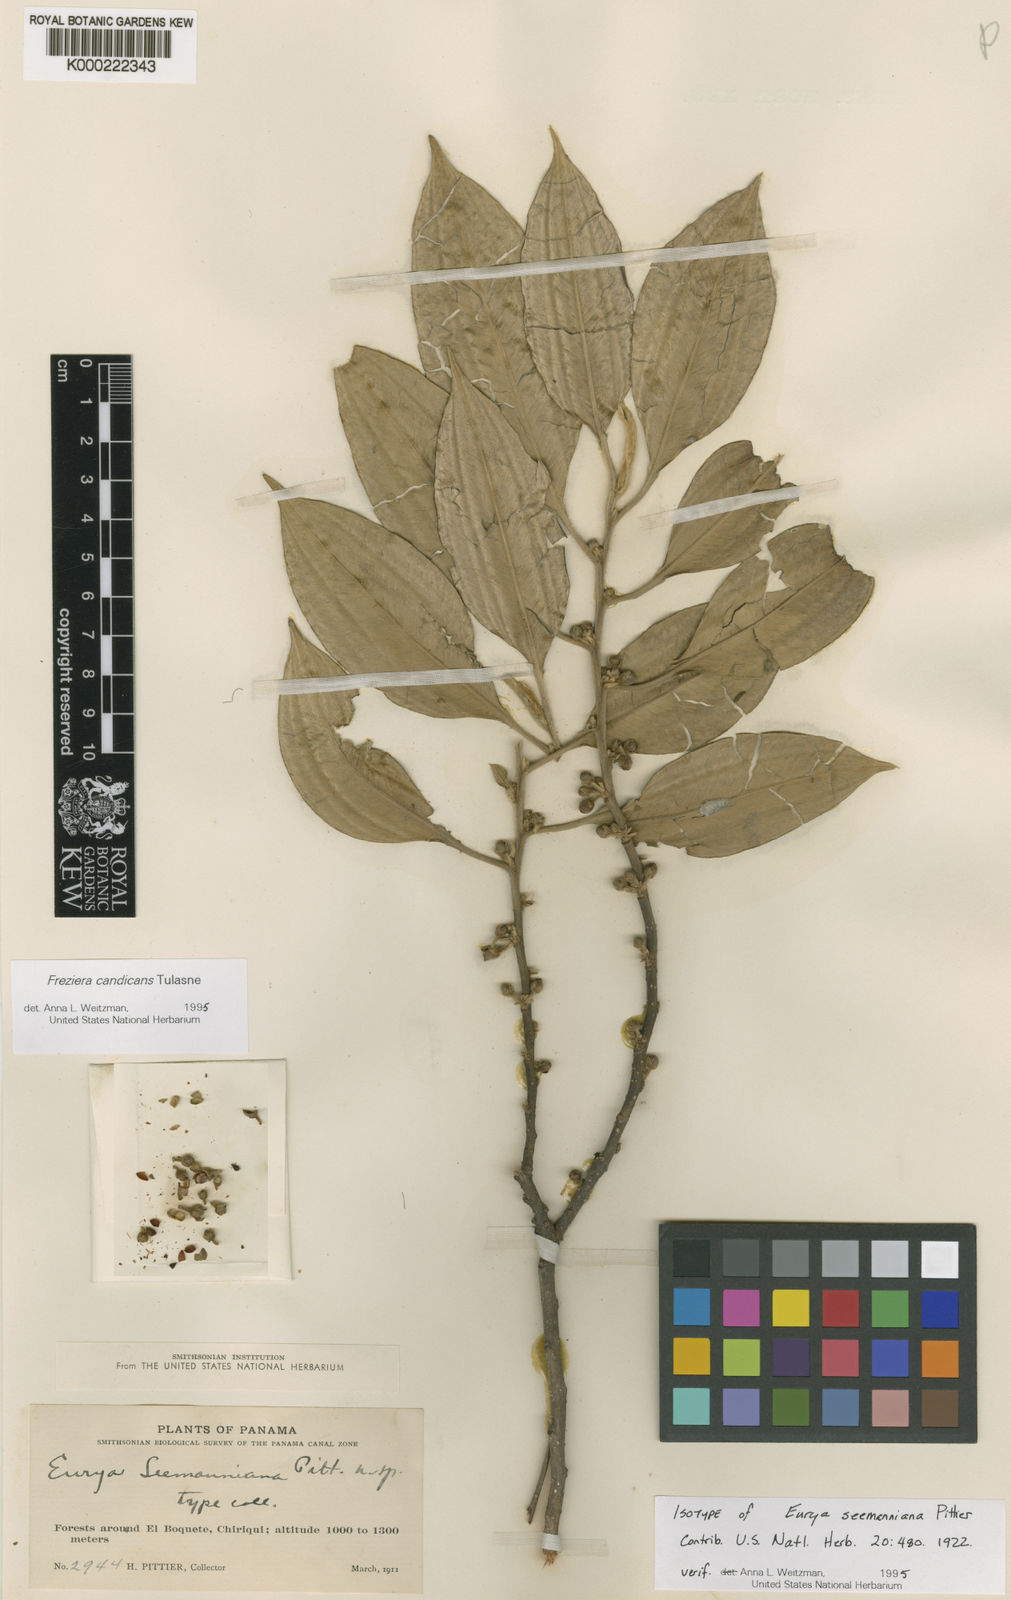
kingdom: Plantae
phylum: Tracheophyta
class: Magnoliopsida
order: Ericales
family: Pentaphylacaceae
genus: Freziera
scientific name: Freziera candicans
